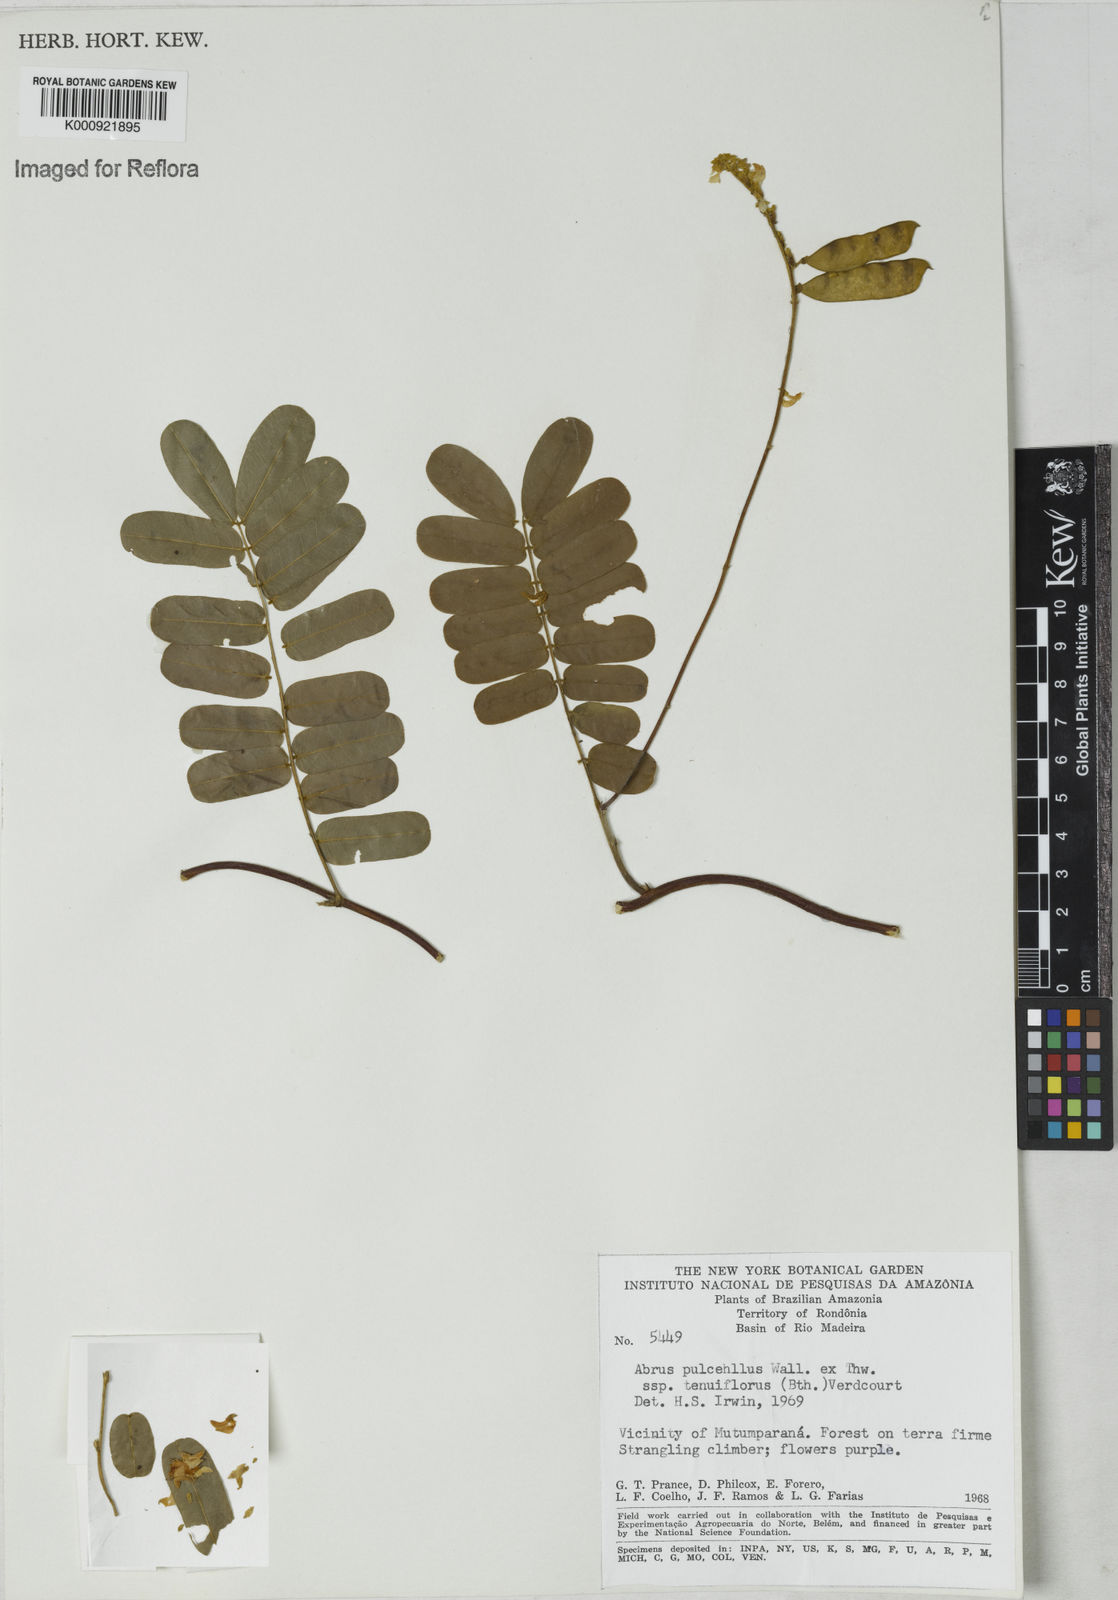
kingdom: Plantae
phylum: Tracheophyta
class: Magnoliopsida
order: Fabales
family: Fabaceae
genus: Abrus
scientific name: Abrus melanospermus
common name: Licorice-root
